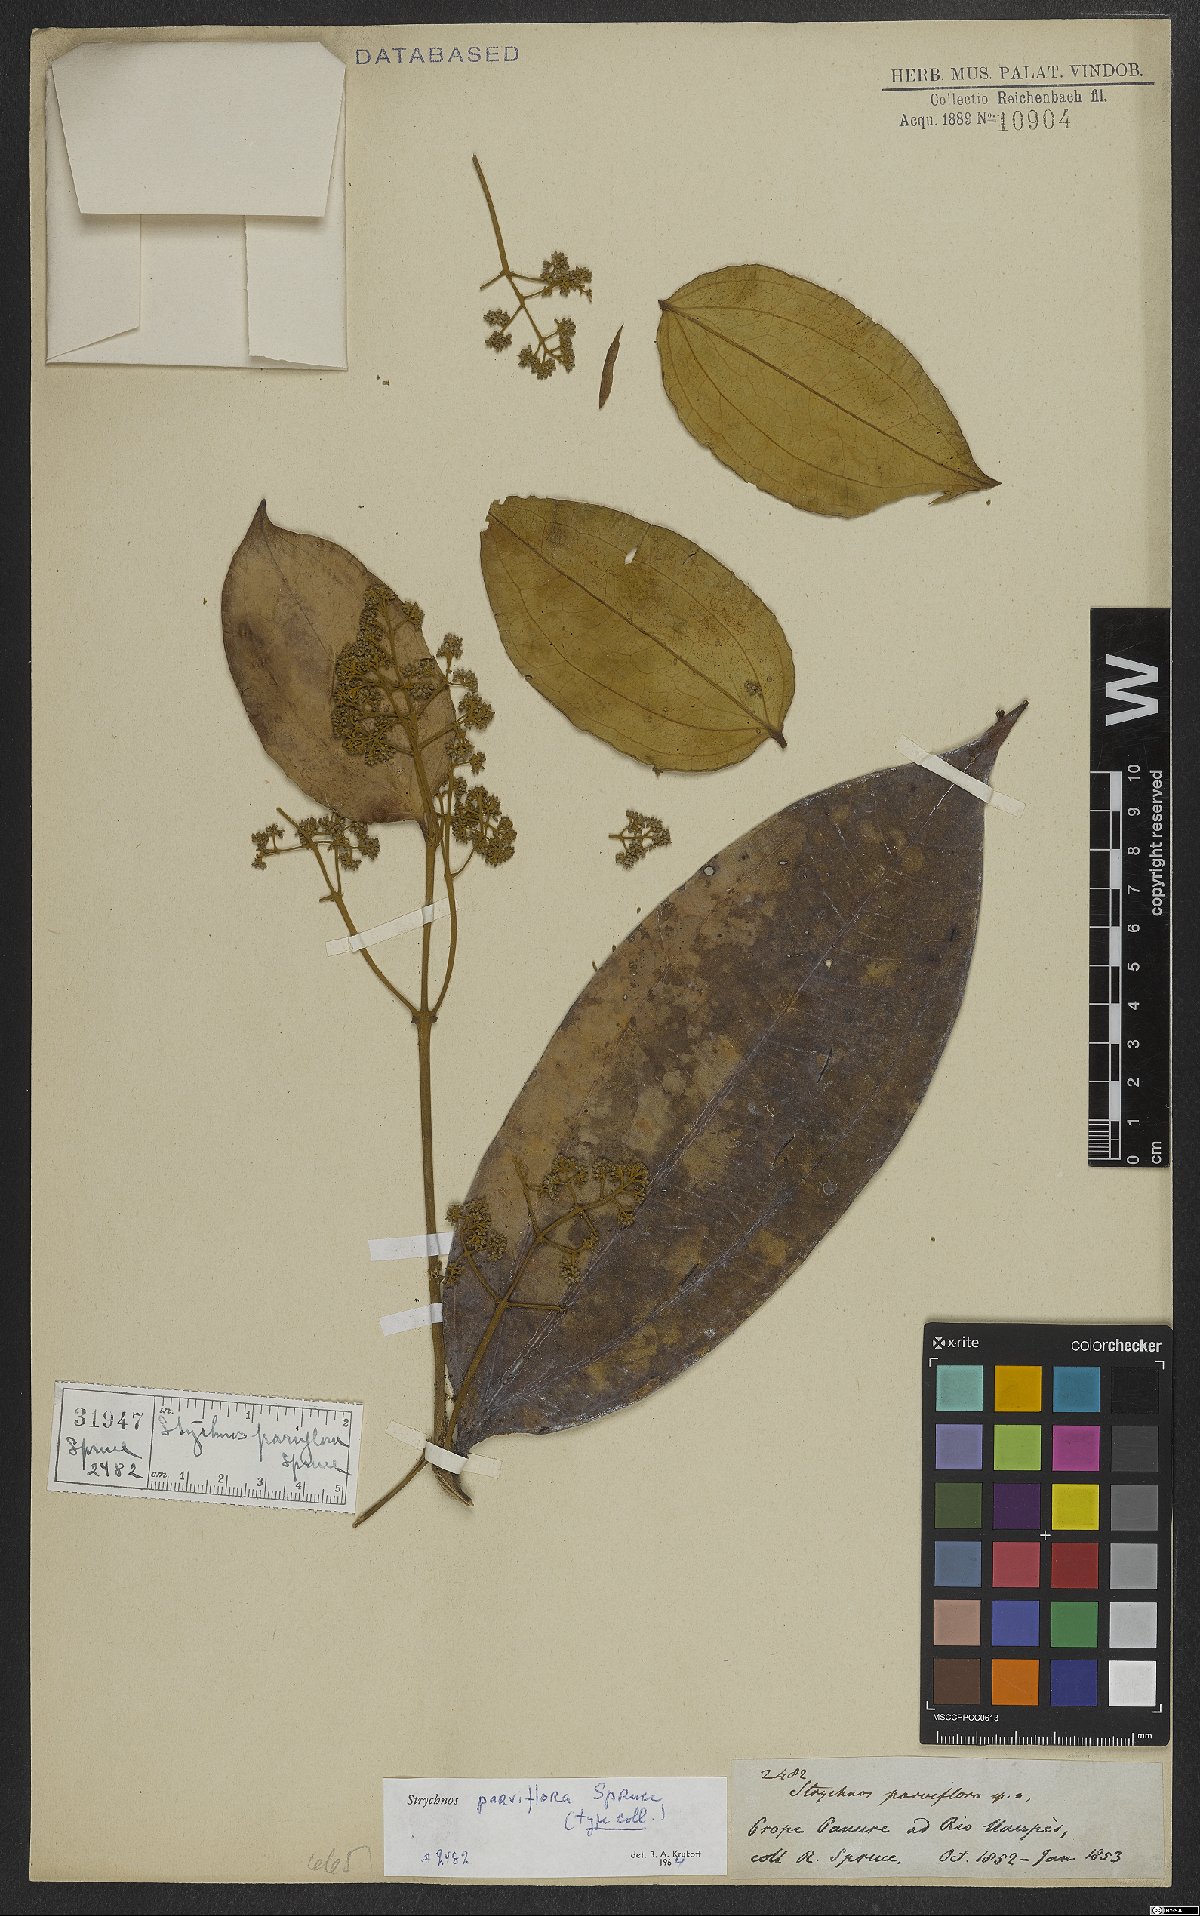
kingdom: Plantae
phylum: Tracheophyta
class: Magnoliopsida
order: Gentianales
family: Loganiaceae
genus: Strychnos
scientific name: Strychnos parviflora
